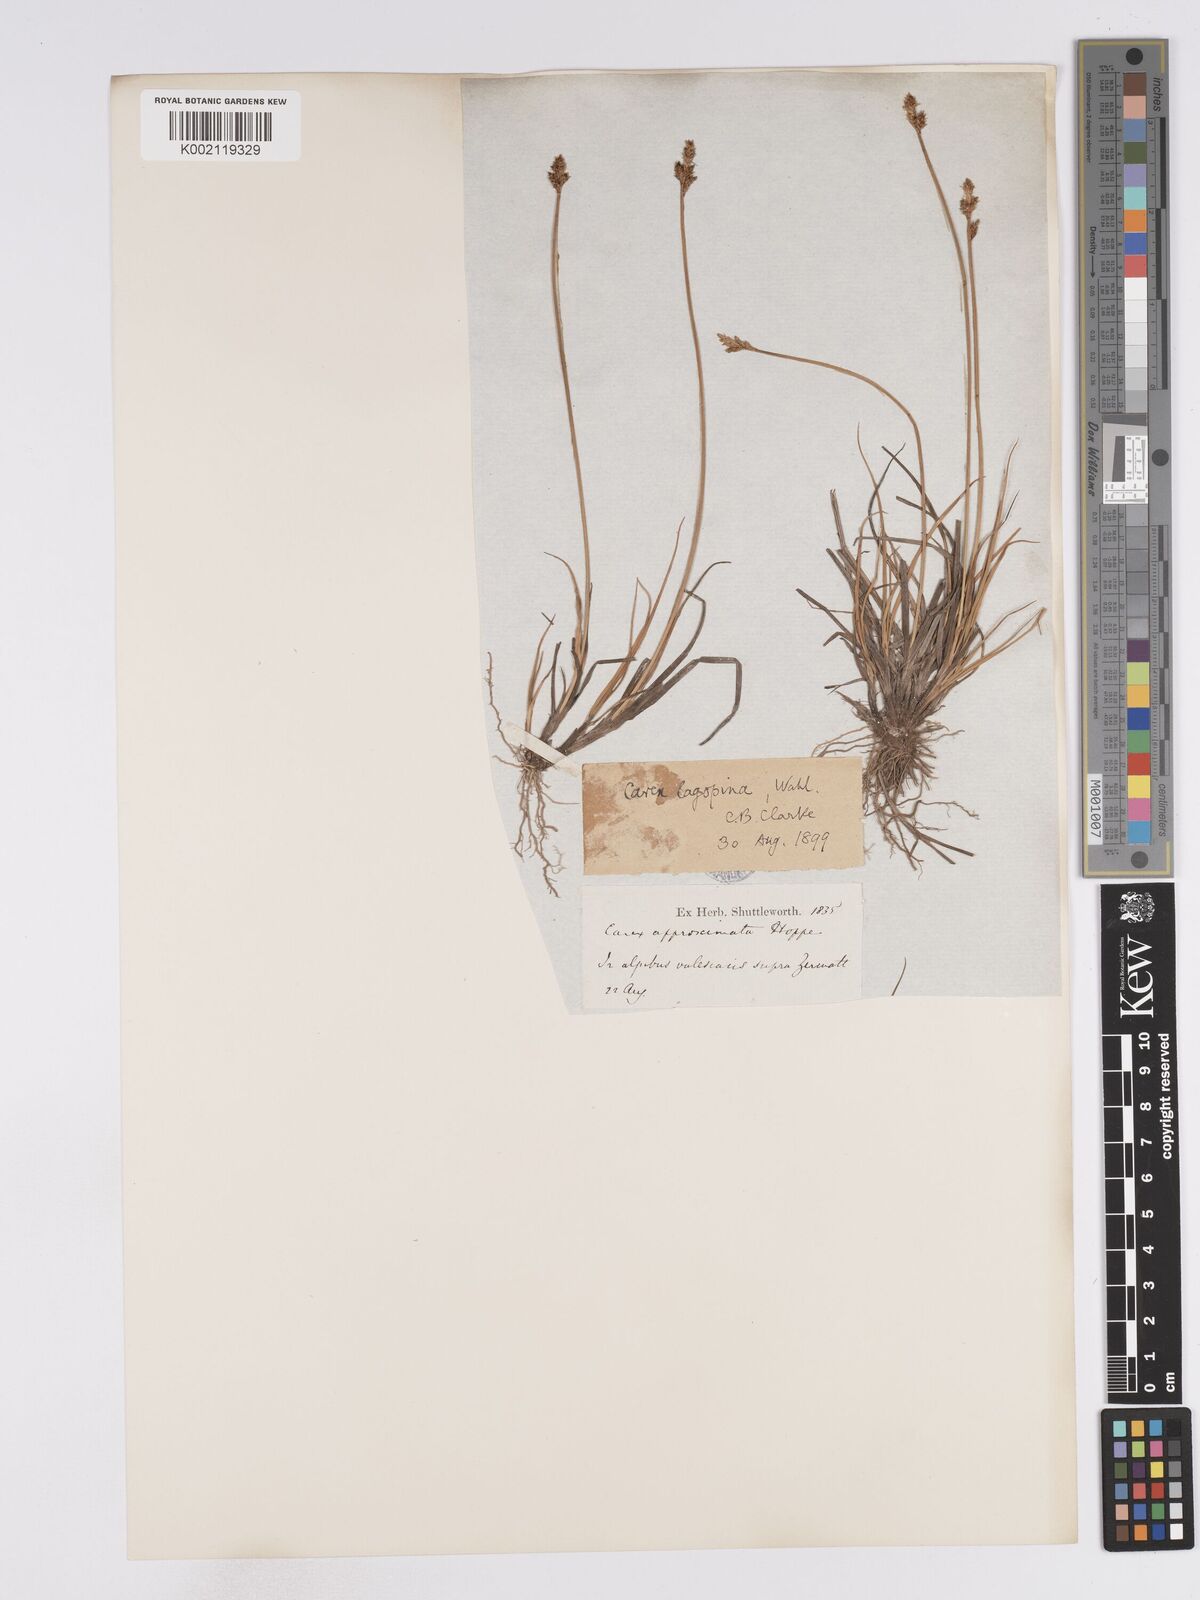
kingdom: Plantae
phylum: Tracheophyta
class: Liliopsida
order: Poales
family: Cyperaceae
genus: Carex
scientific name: Carex lachenalii
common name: Hare's-foot sedge
